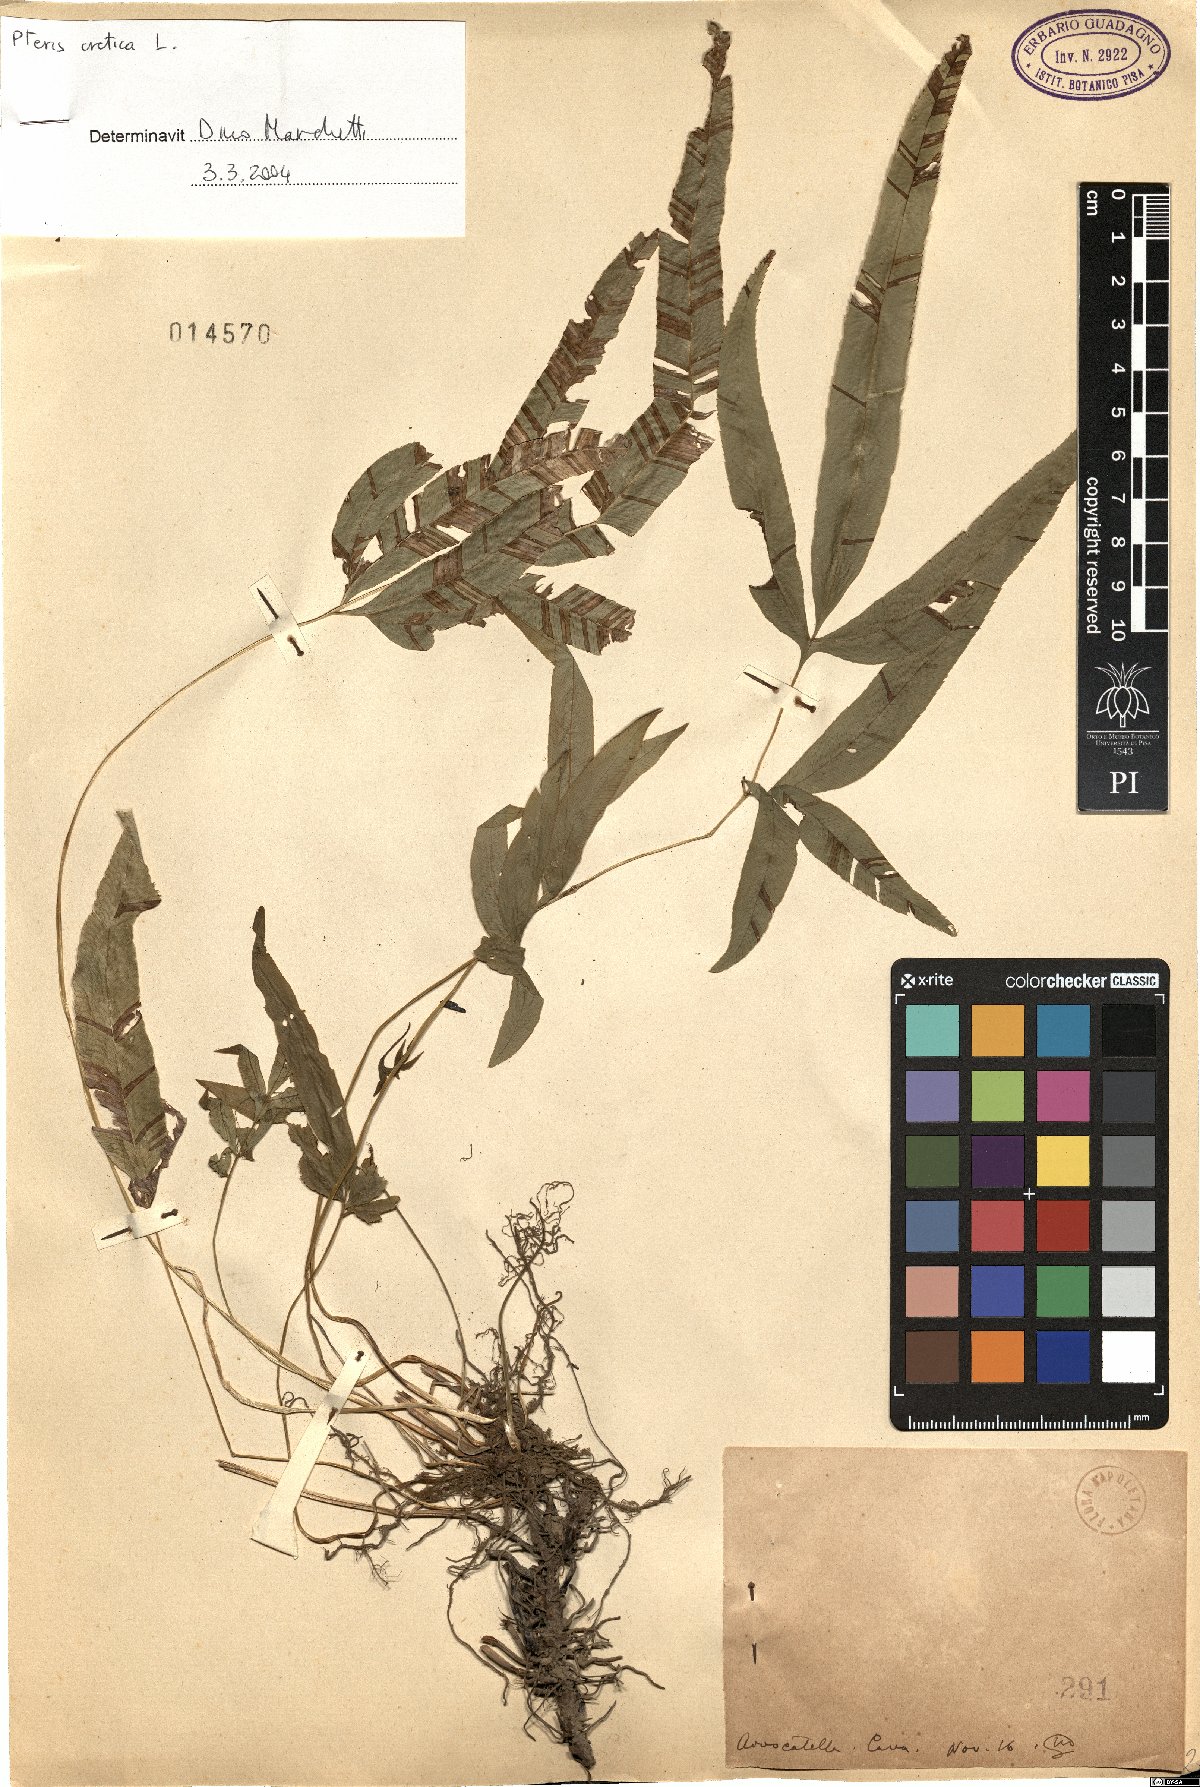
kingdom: Plantae
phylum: Tracheophyta
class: Polypodiopsida
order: Polypodiales
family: Pteridaceae
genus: Pteris
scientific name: Pteris cretica
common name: Ribbon fern
